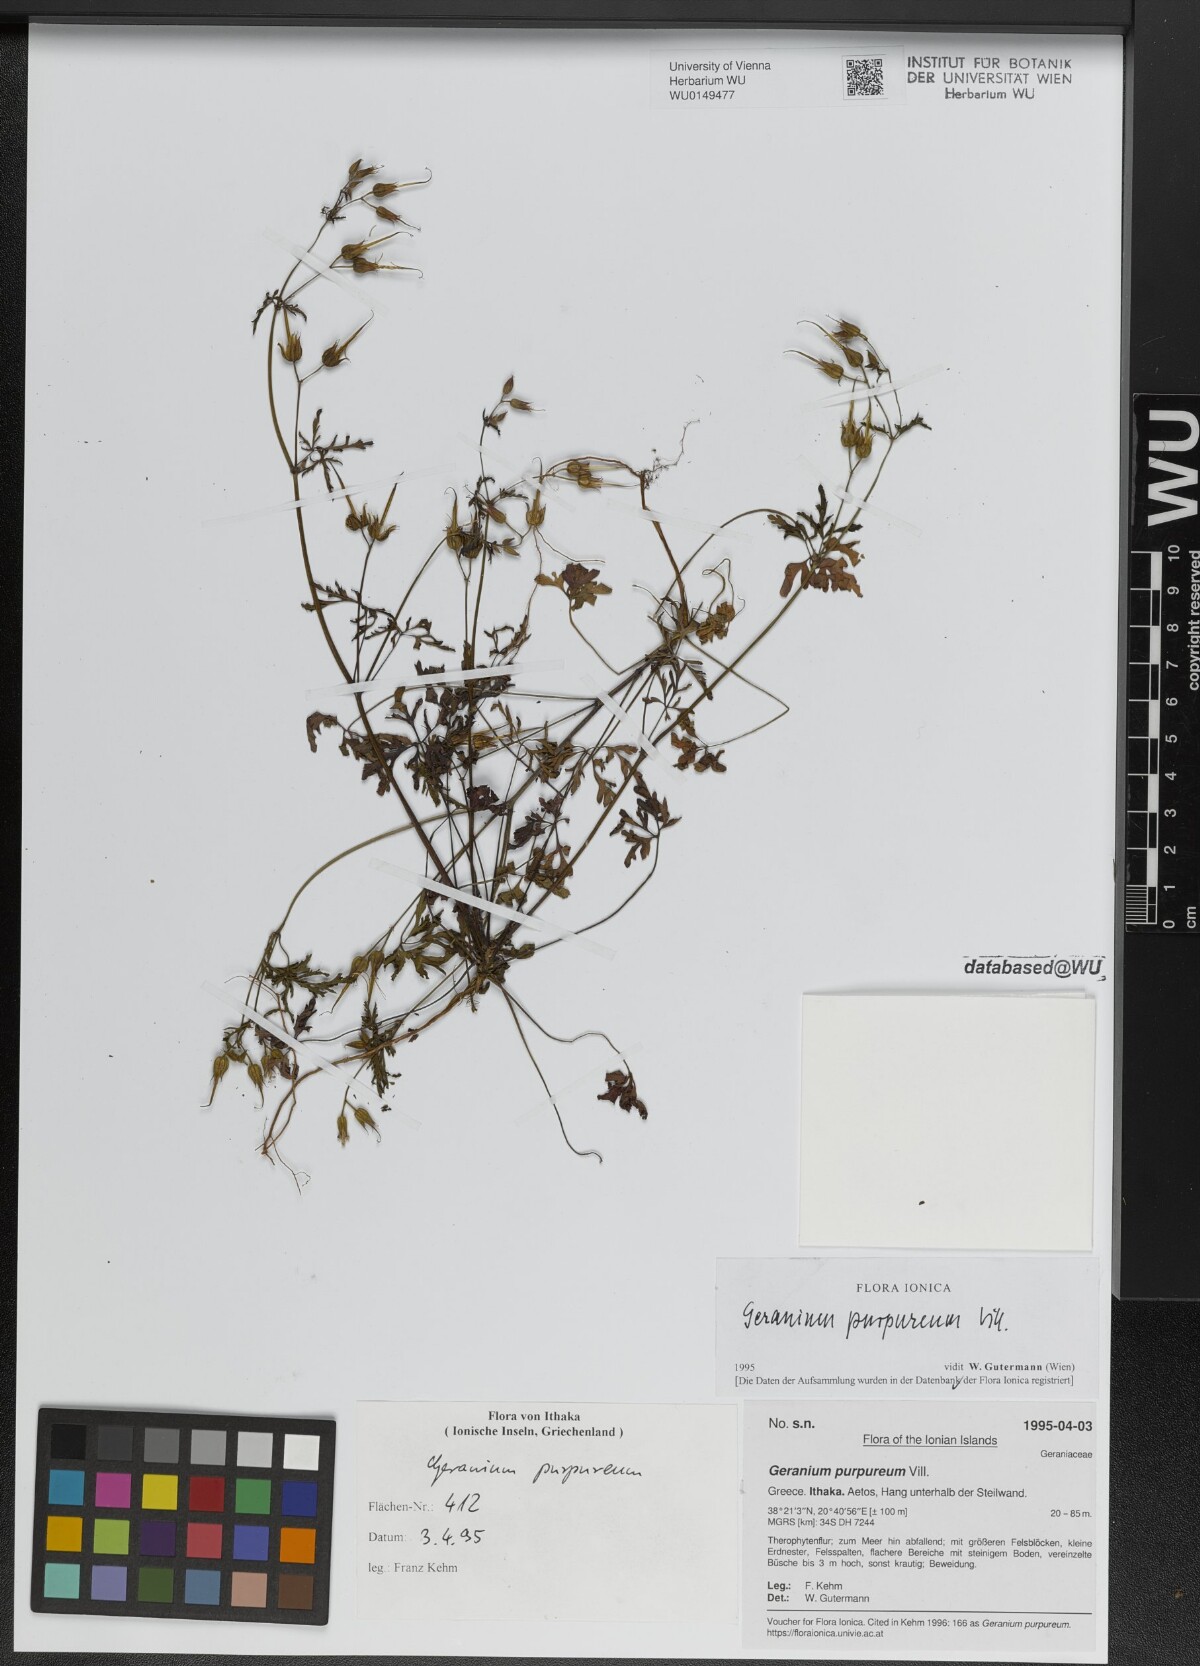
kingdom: Plantae
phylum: Tracheophyta
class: Magnoliopsida
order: Geraniales
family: Geraniaceae
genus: Geranium
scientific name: Geranium purpureum
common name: Little-robin
